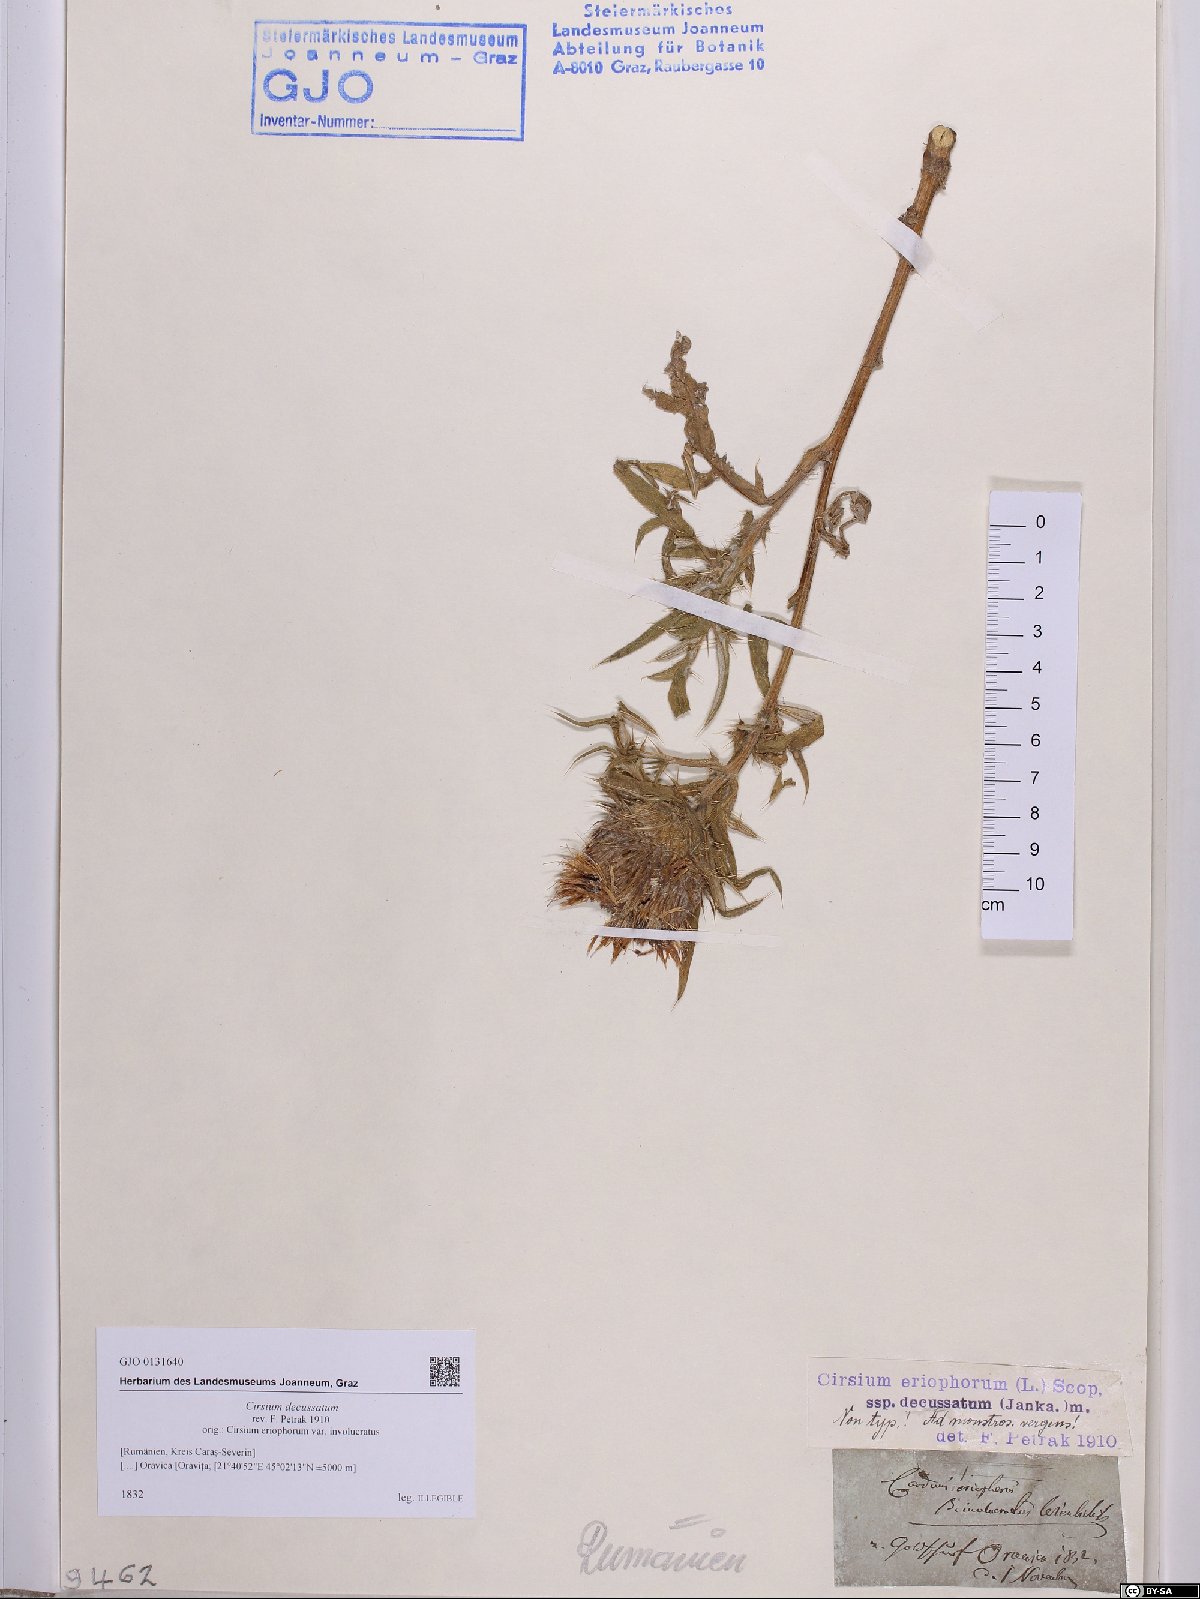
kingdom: Plantae
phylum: Tracheophyta
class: Magnoliopsida
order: Asterales
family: Asteraceae
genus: Lophiolepis
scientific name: Lophiolepis decussata
